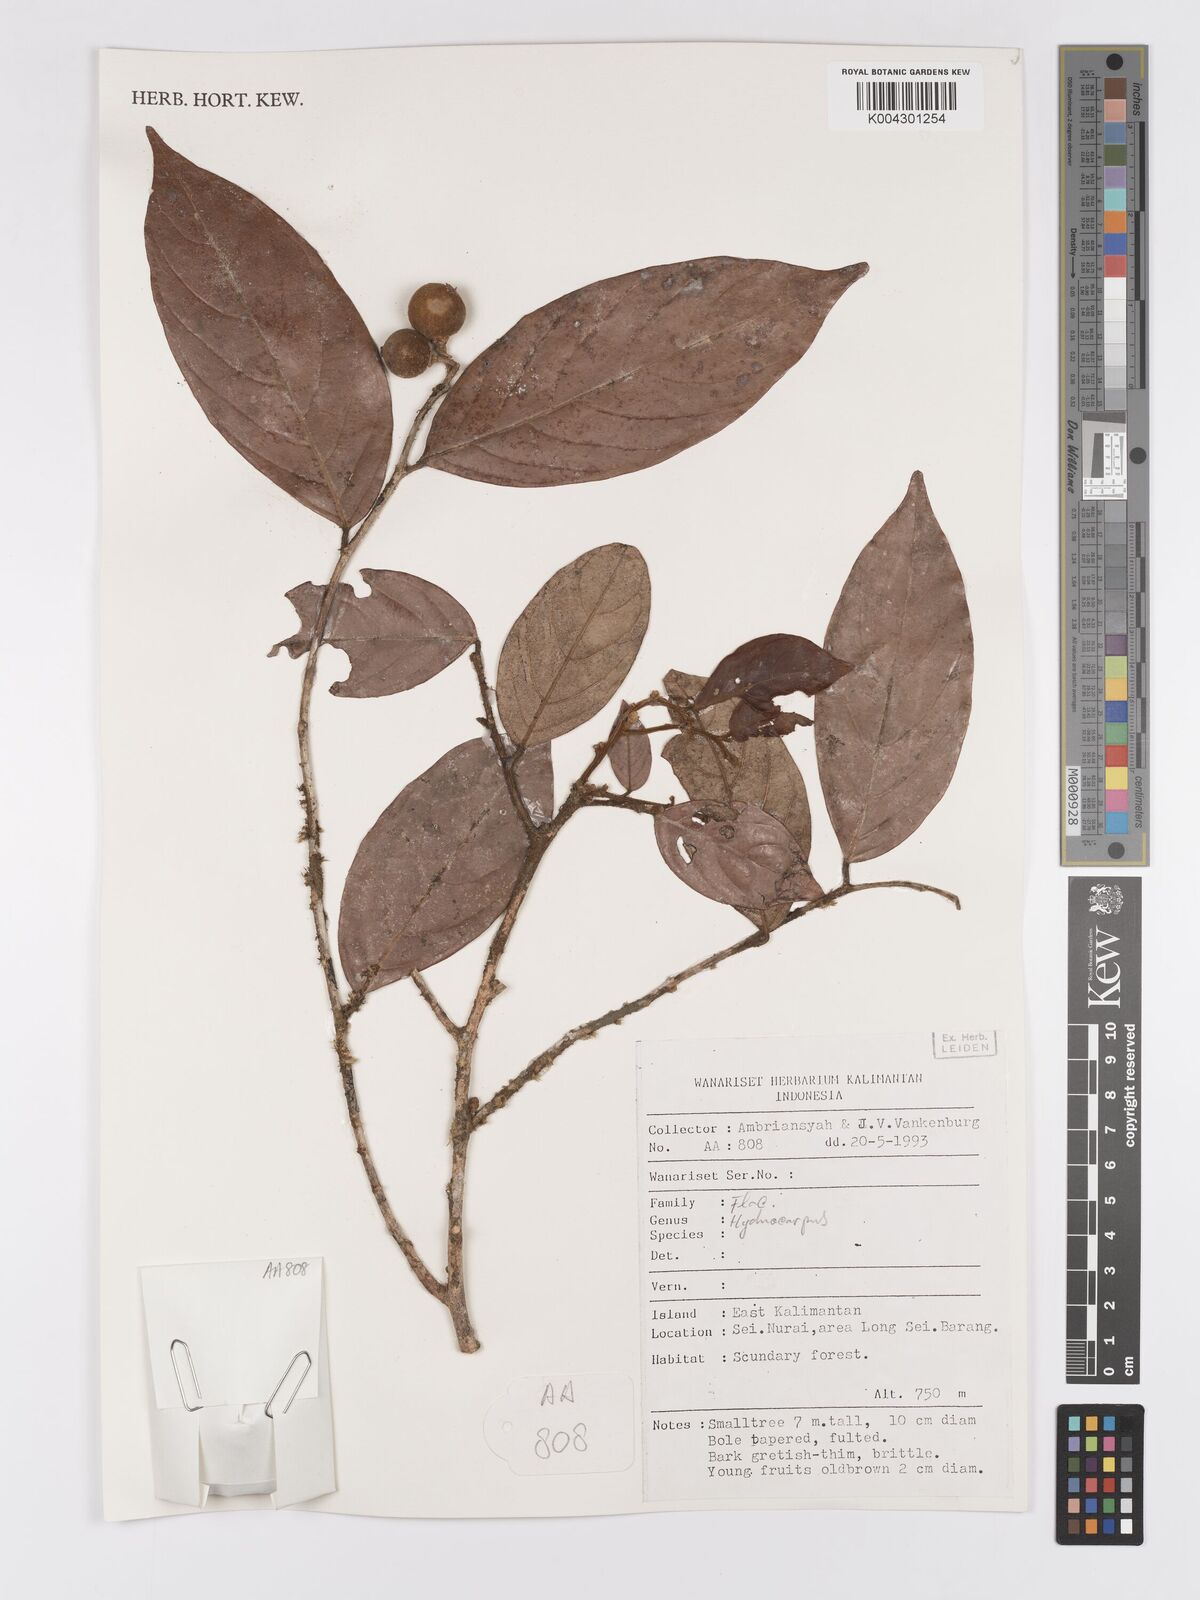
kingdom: Plantae
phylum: Tracheophyta
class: Magnoliopsida
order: Malpighiales
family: Achariaceae
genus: Hydnocarpus
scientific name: Hydnocarpus
